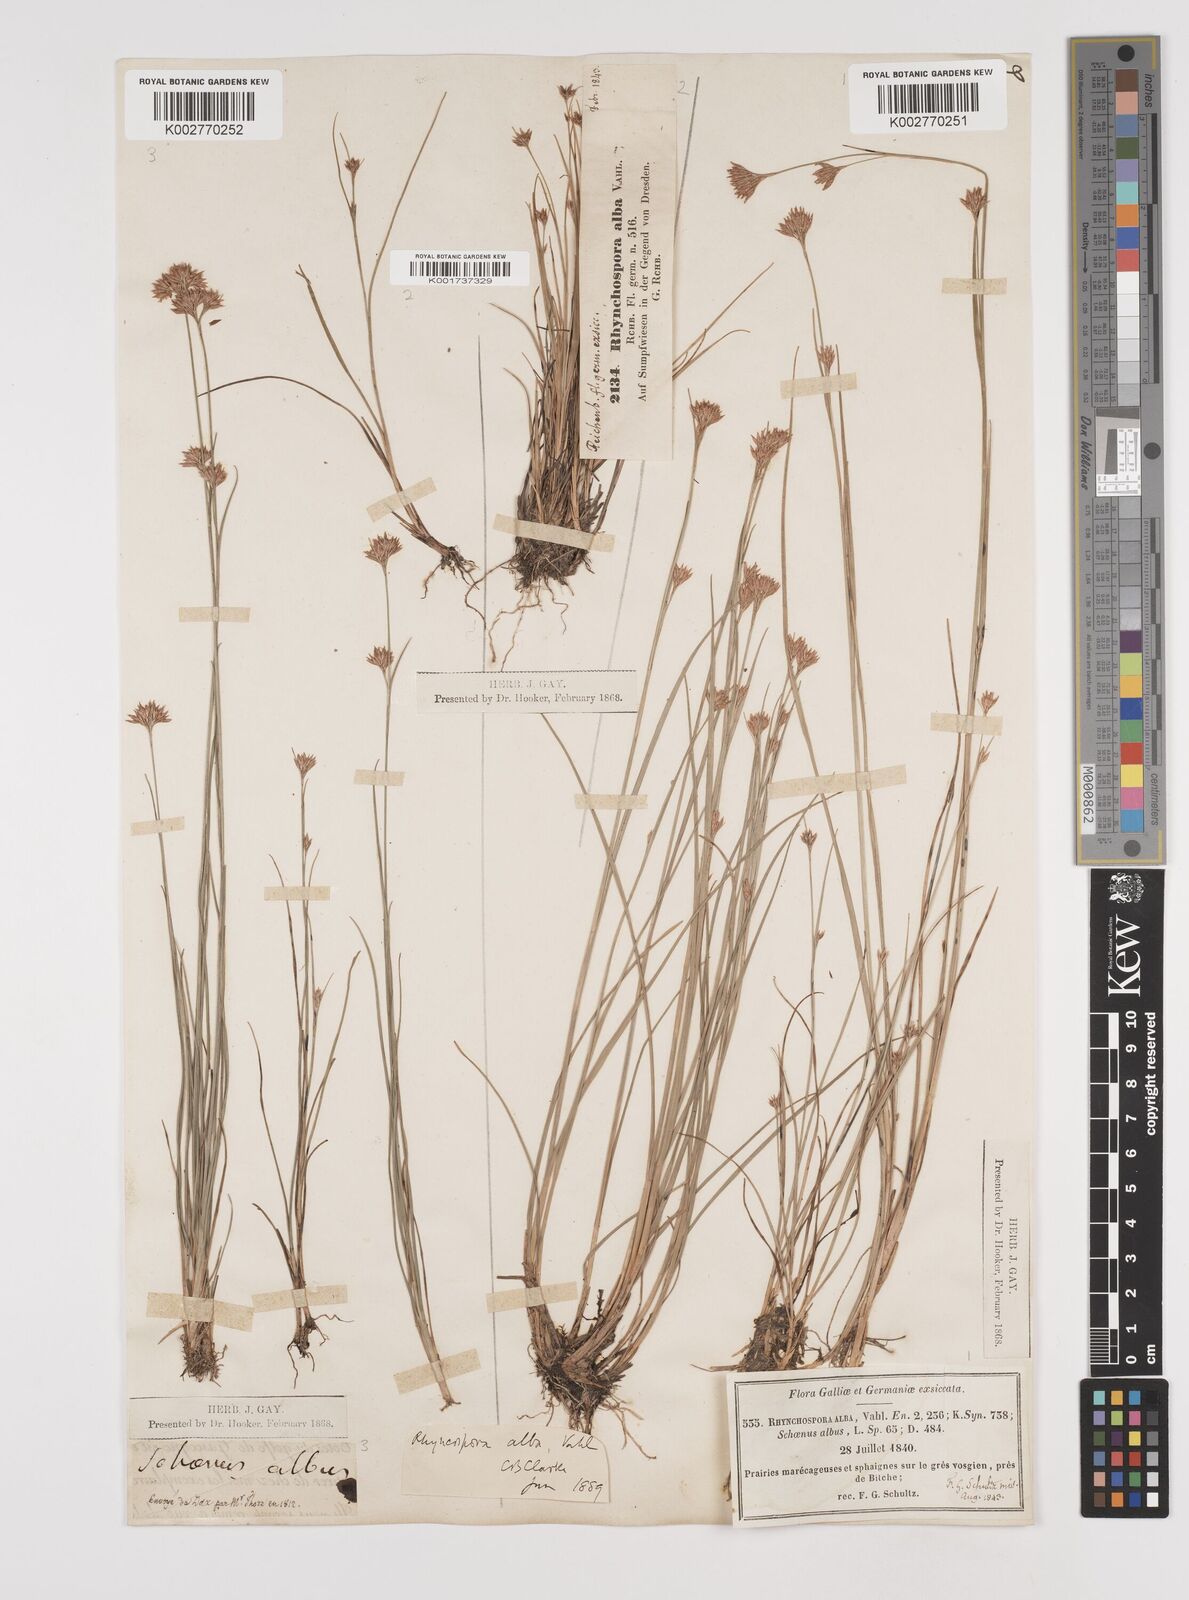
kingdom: Plantae
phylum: Tracheophyta
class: Liliopsida
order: Poales
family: Cyperaceae
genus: Rhynchospora
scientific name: Rhynchospora alba
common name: White beak-sedge
